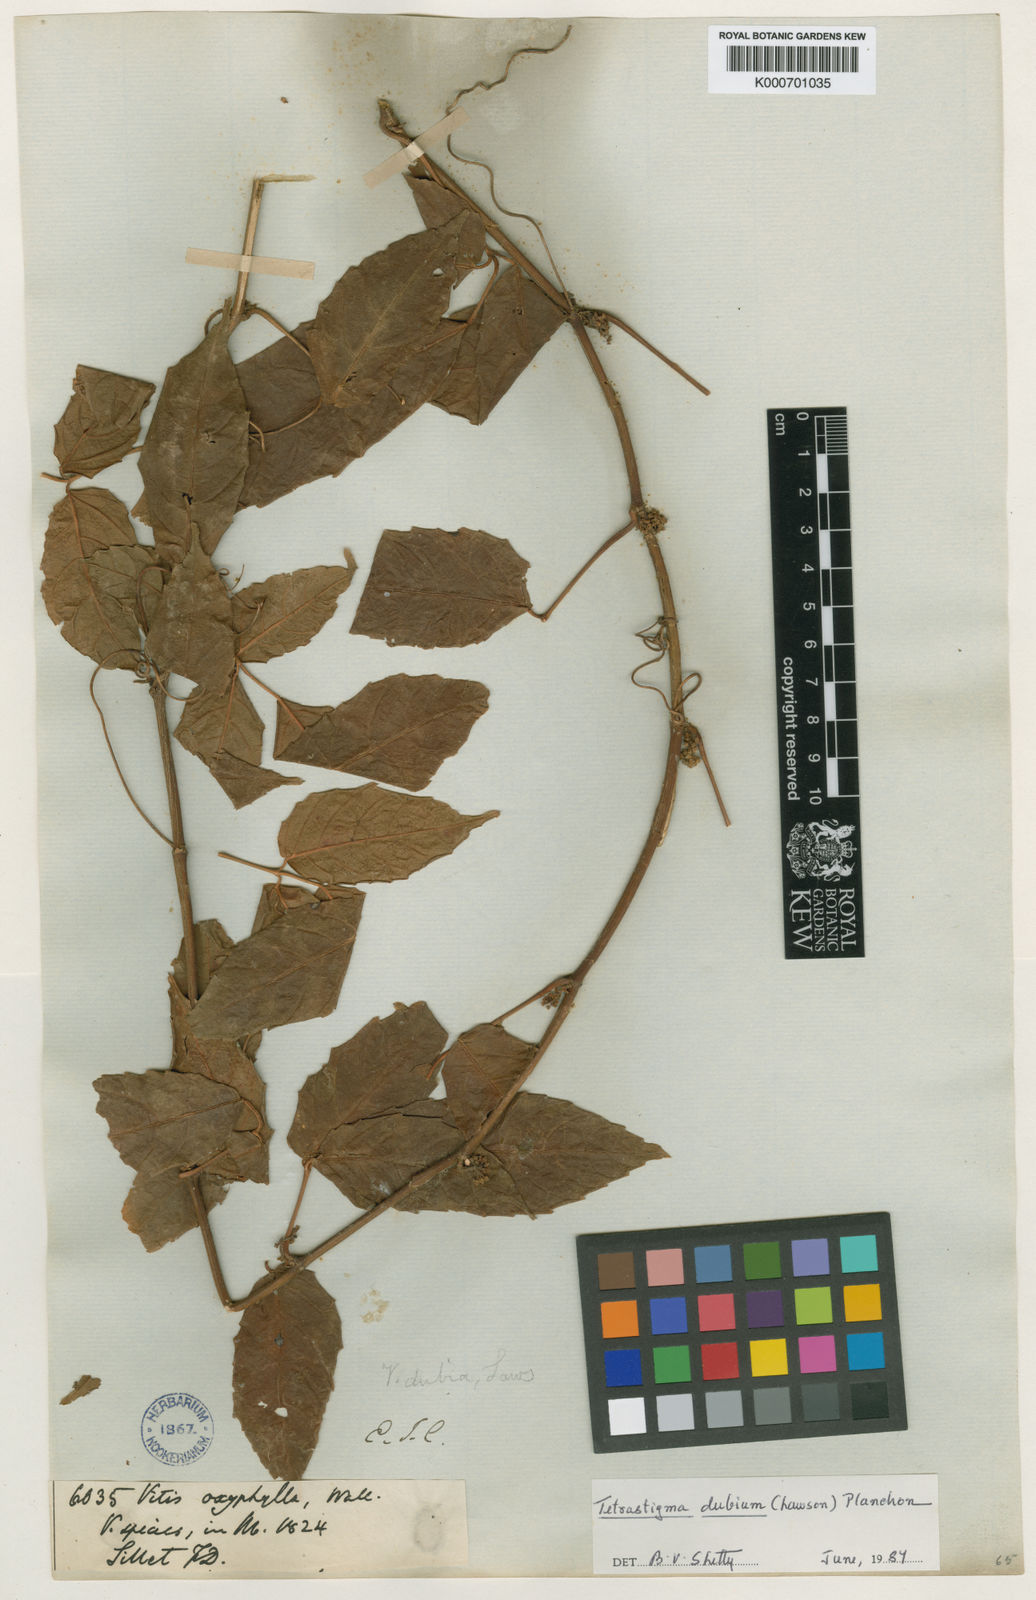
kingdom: Plantae
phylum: Tracheophyta
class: Magnoliopsida
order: Vitales
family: Vitaceae
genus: Tetrastigma
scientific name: Tetrastigma dubium
